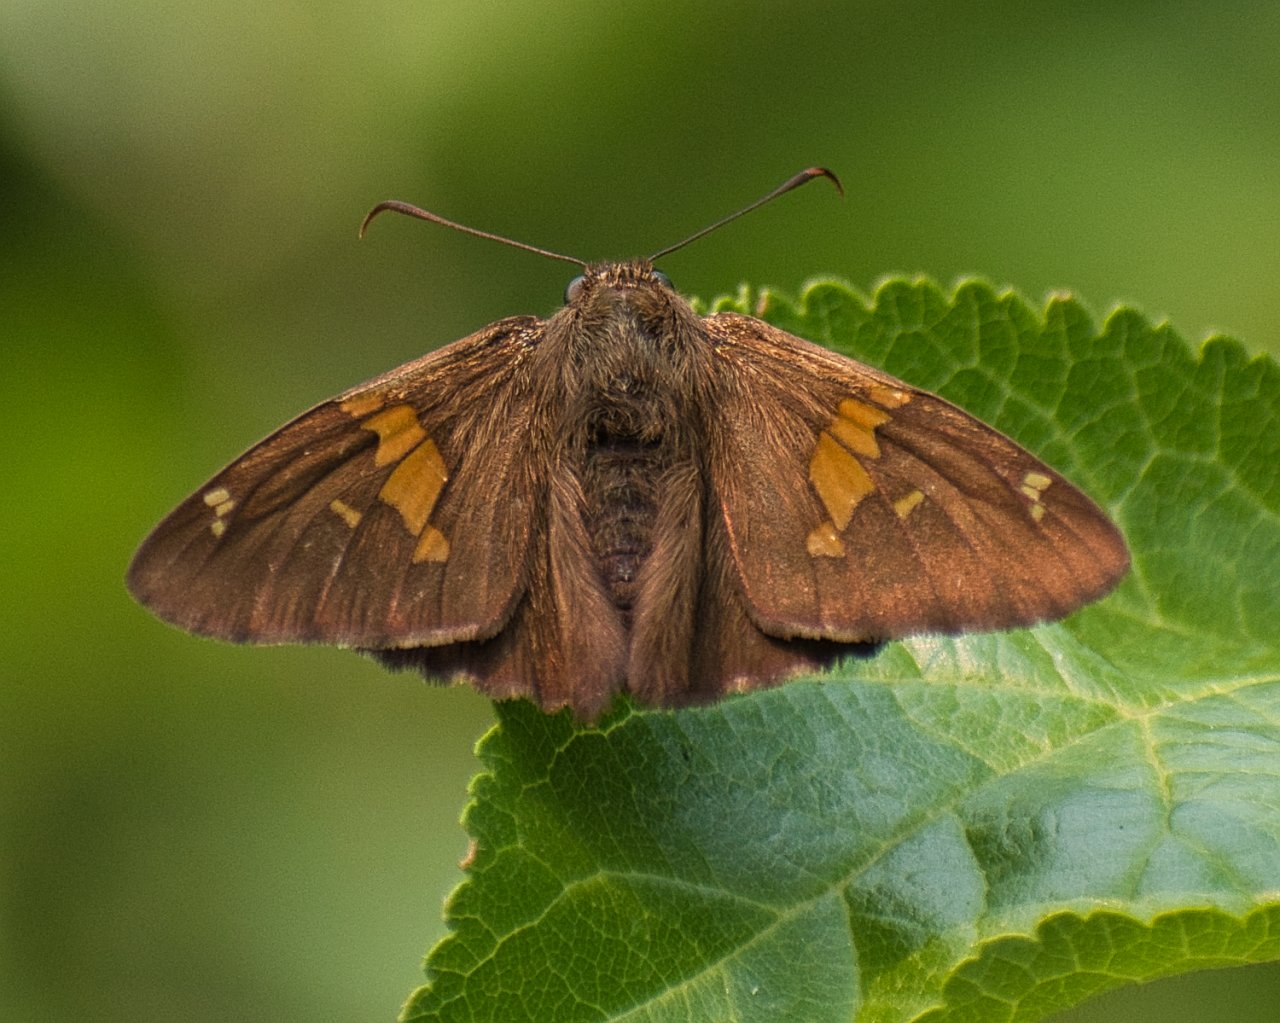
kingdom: Animalia
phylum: Arthropoda
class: Insecta
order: Lepidoptera
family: Hesperiidae
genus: Epargyreus
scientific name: Epargyreus clarus
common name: Silver-spotted Skipper
